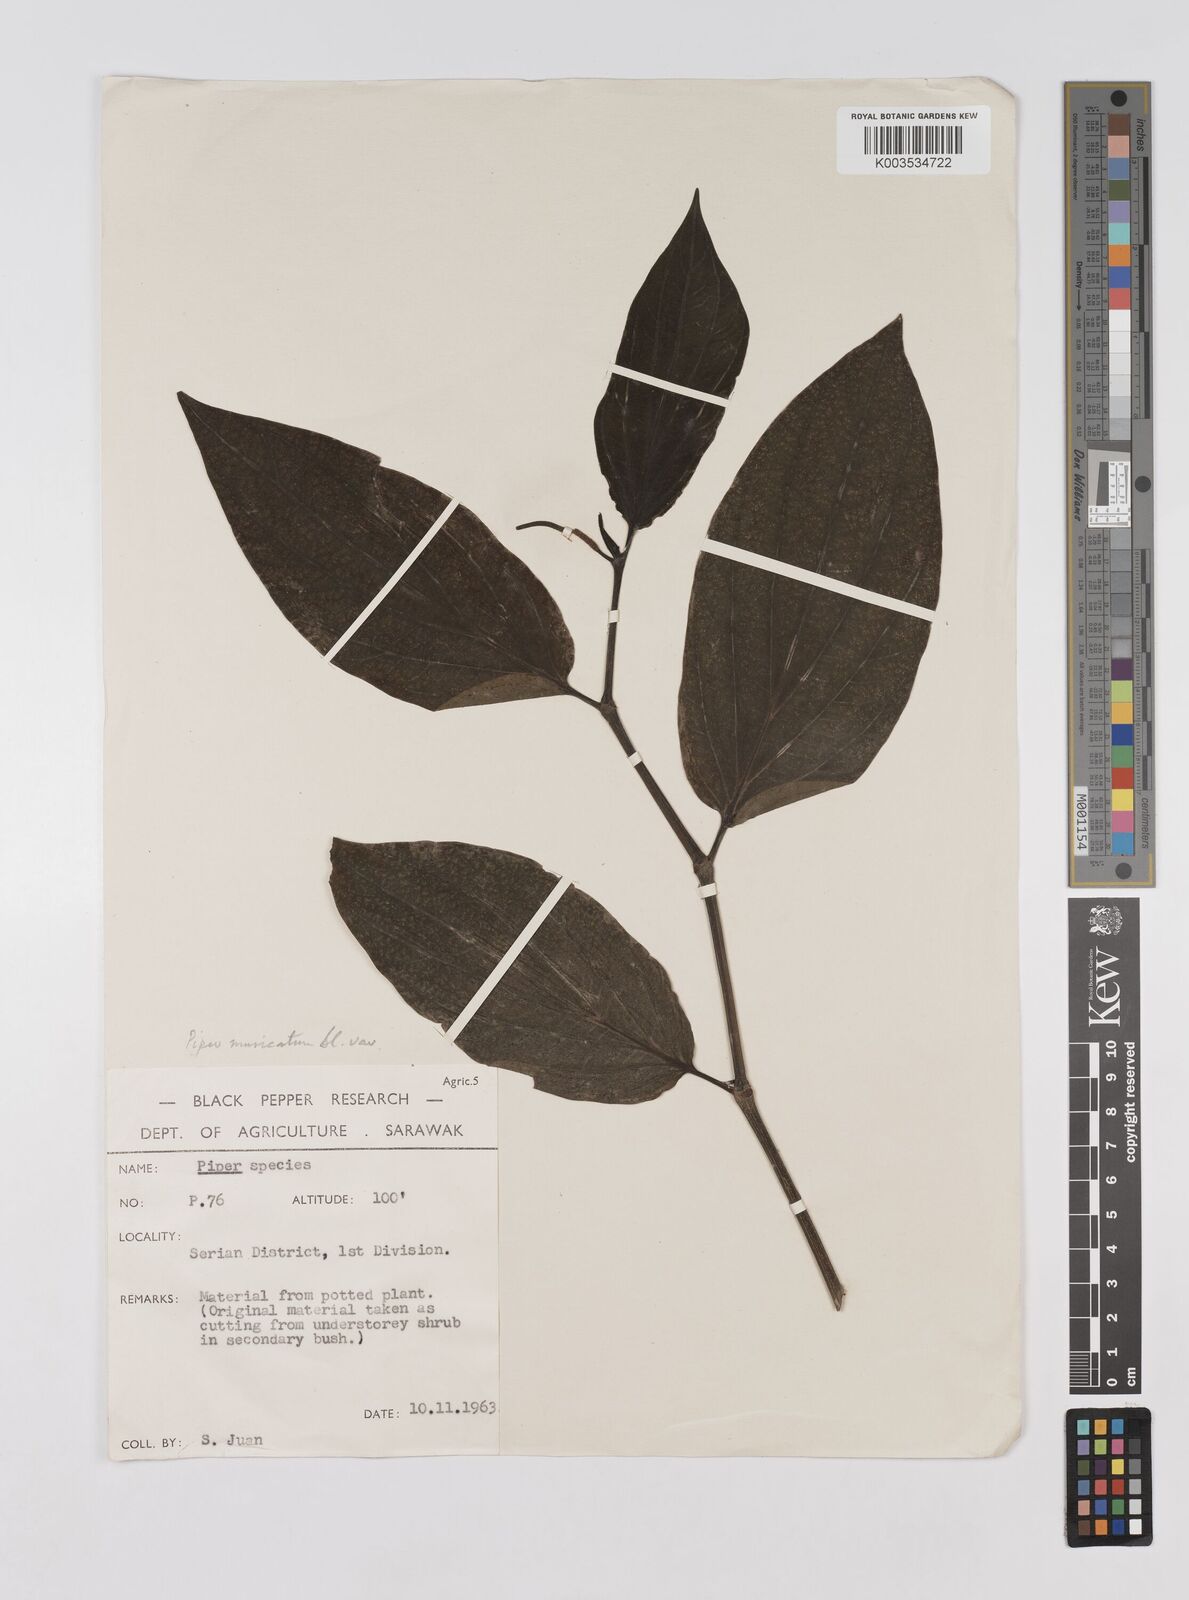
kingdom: Plantae
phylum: Tracheophyta
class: Magnoliopsida
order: Piperales
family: Piperaceae
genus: Piper
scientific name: Piper muricatum
